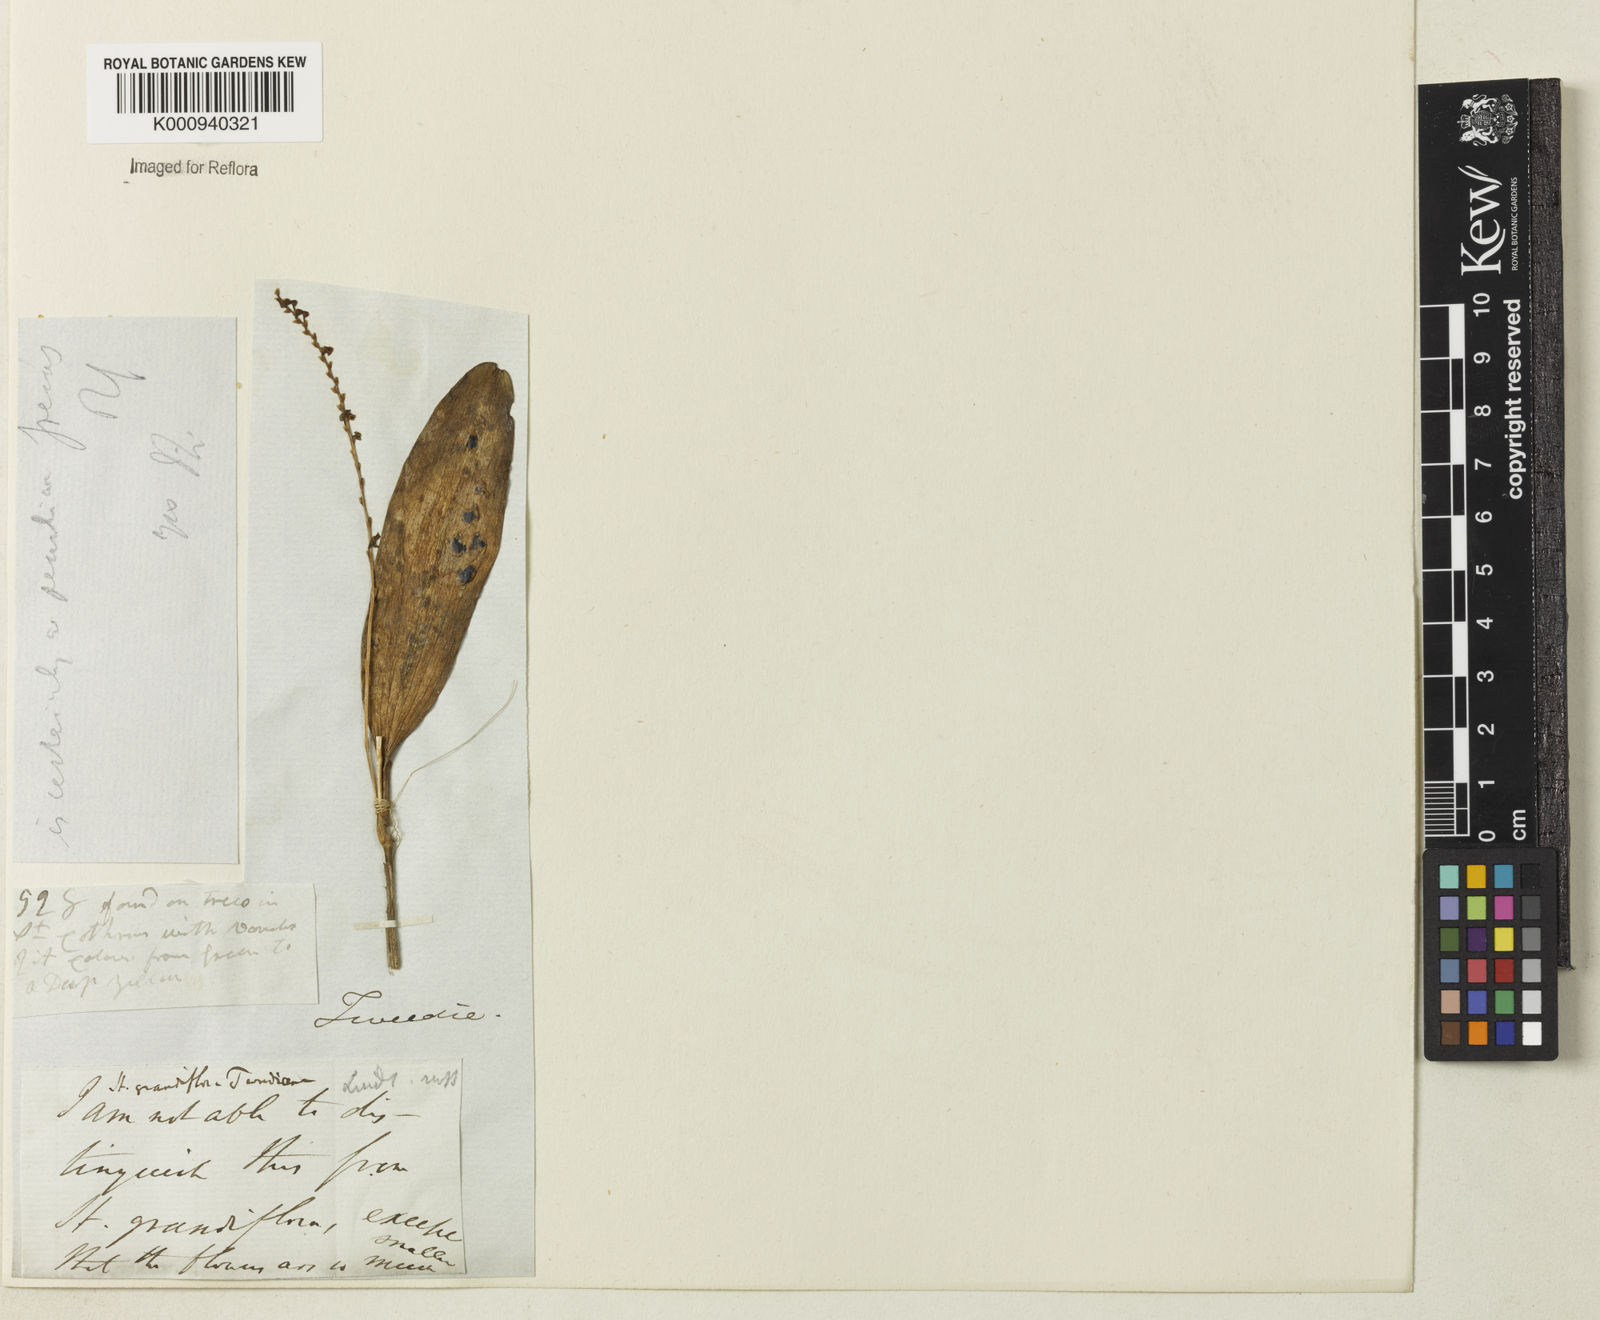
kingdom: Plantae
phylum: Tracheophyta
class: Liliopsida
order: Asparagales
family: Orchidaceae
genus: Stelis
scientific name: Stelis papaquerensis
